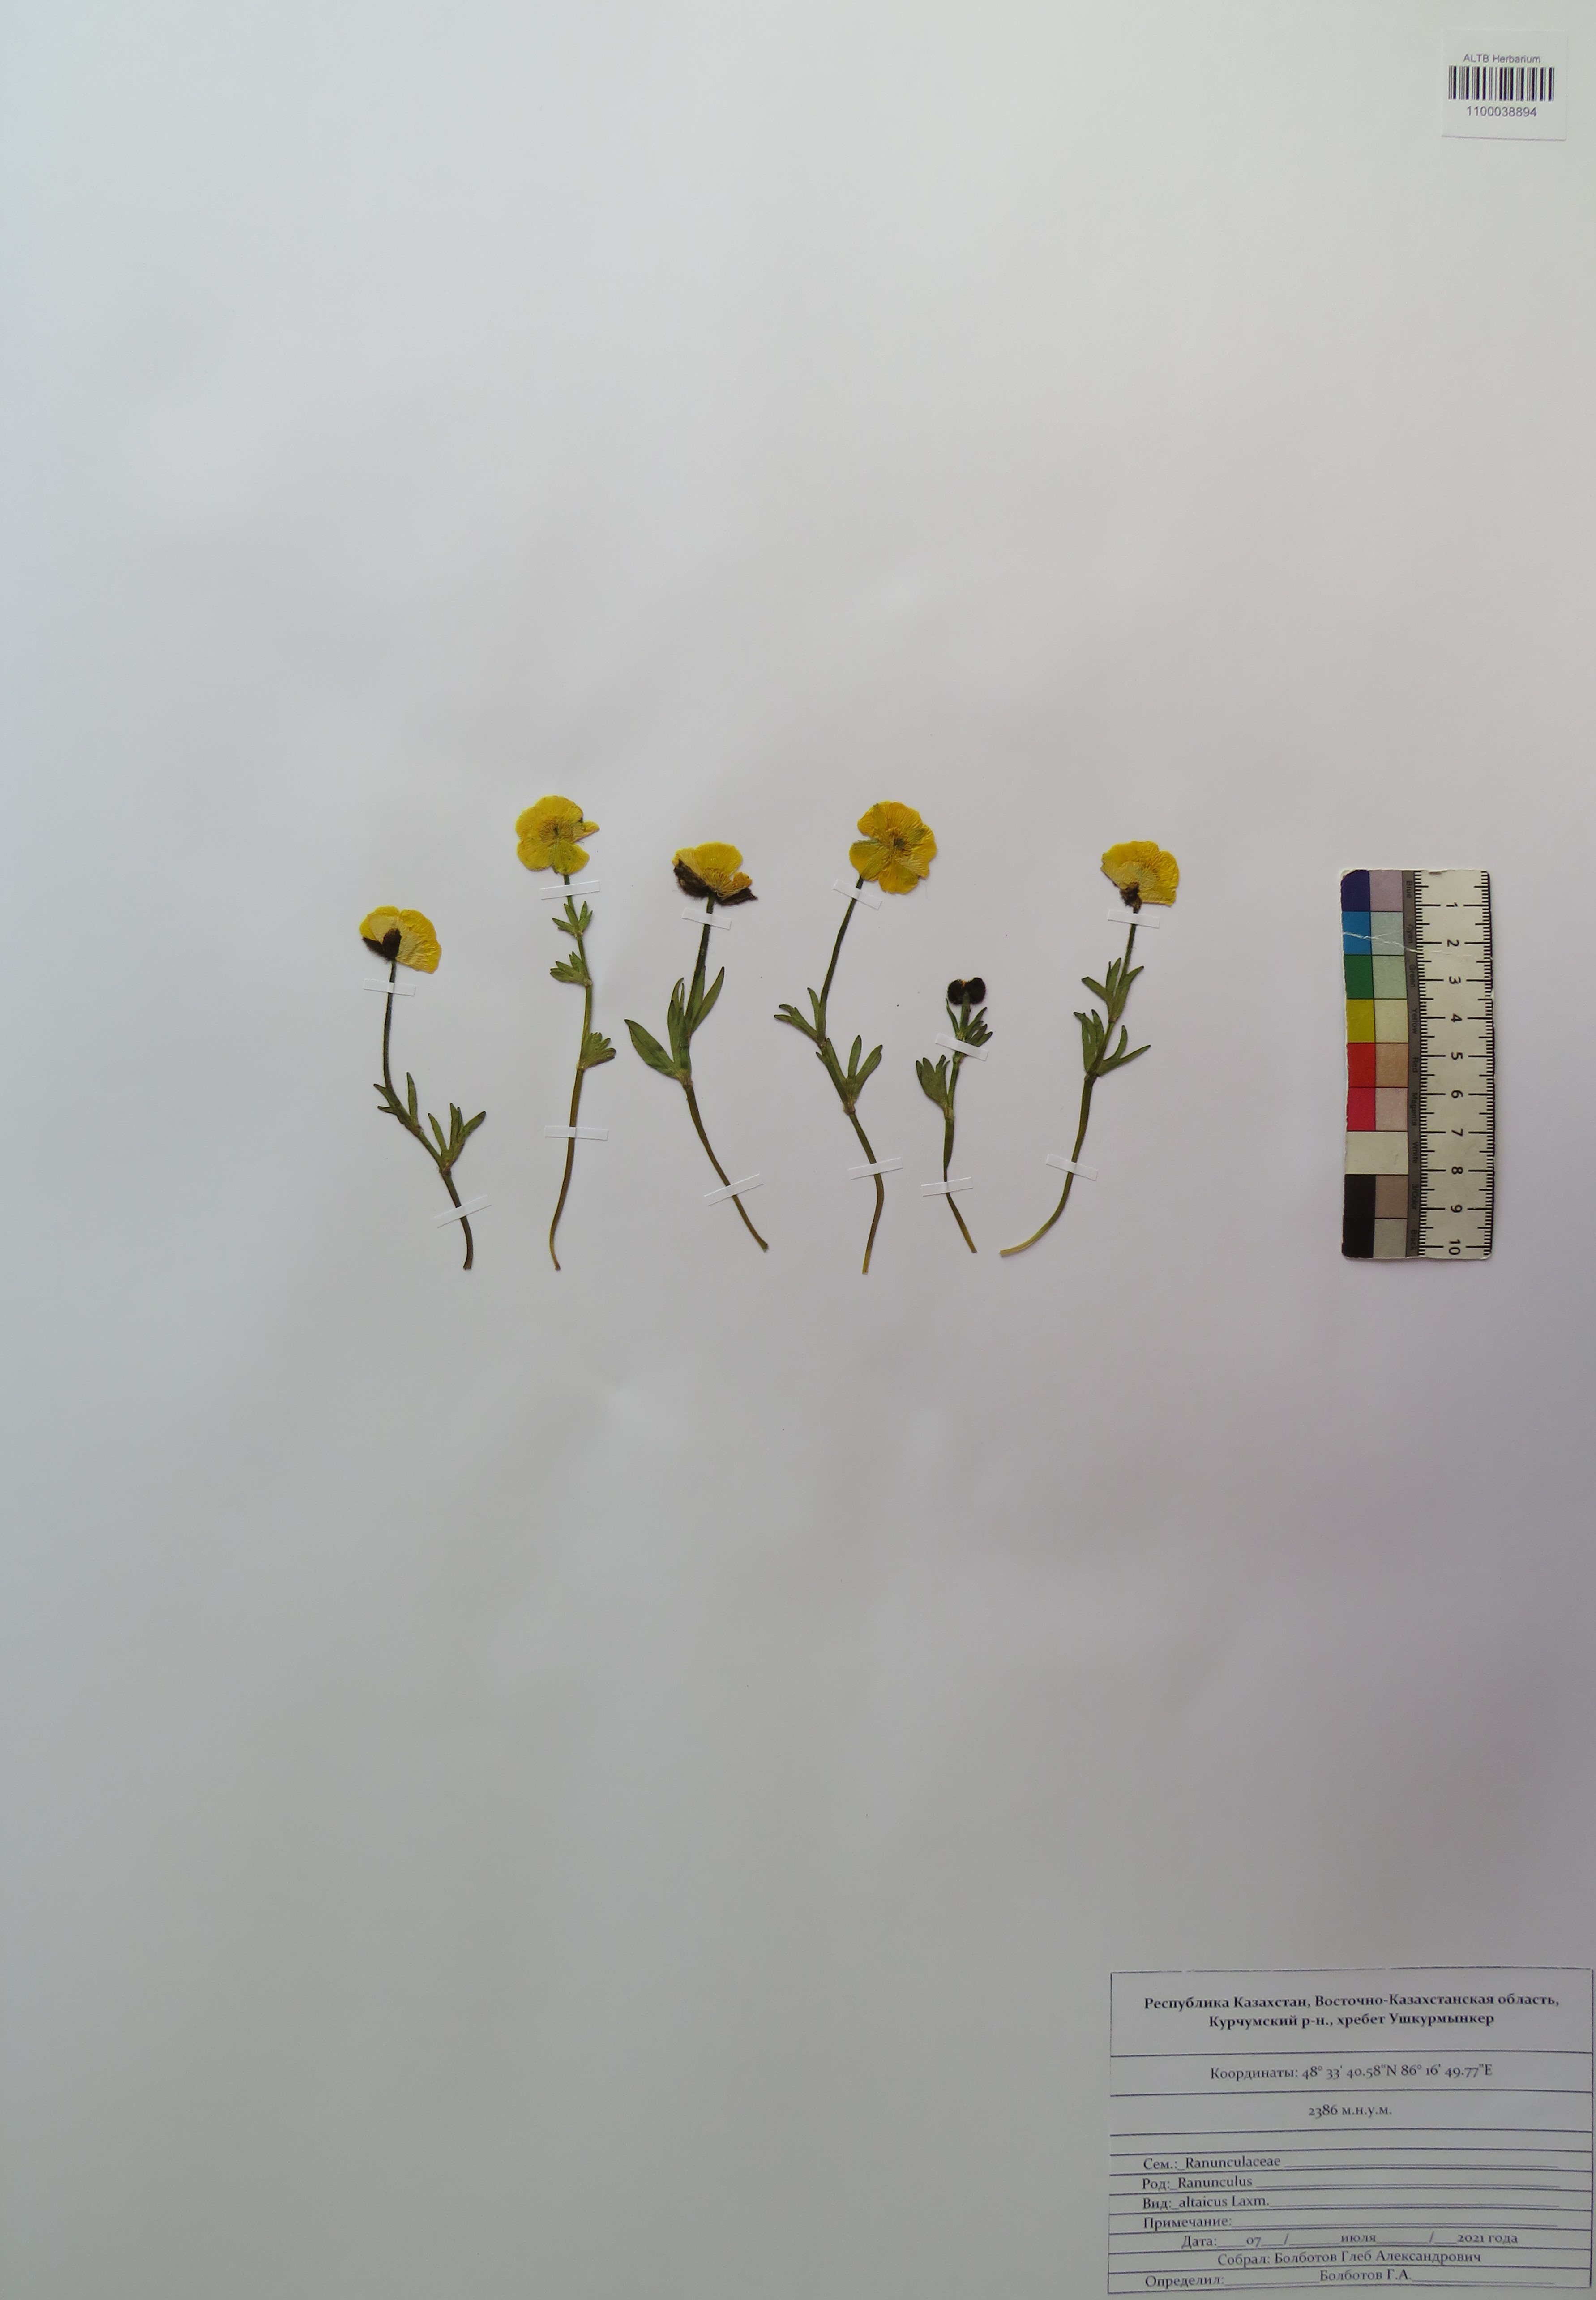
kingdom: Plantae
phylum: Tracheophyta
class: Magnoliopsida
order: Ranunculales
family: Ranunculaceae
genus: Ranunculus
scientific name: Ranunculus altaicus
